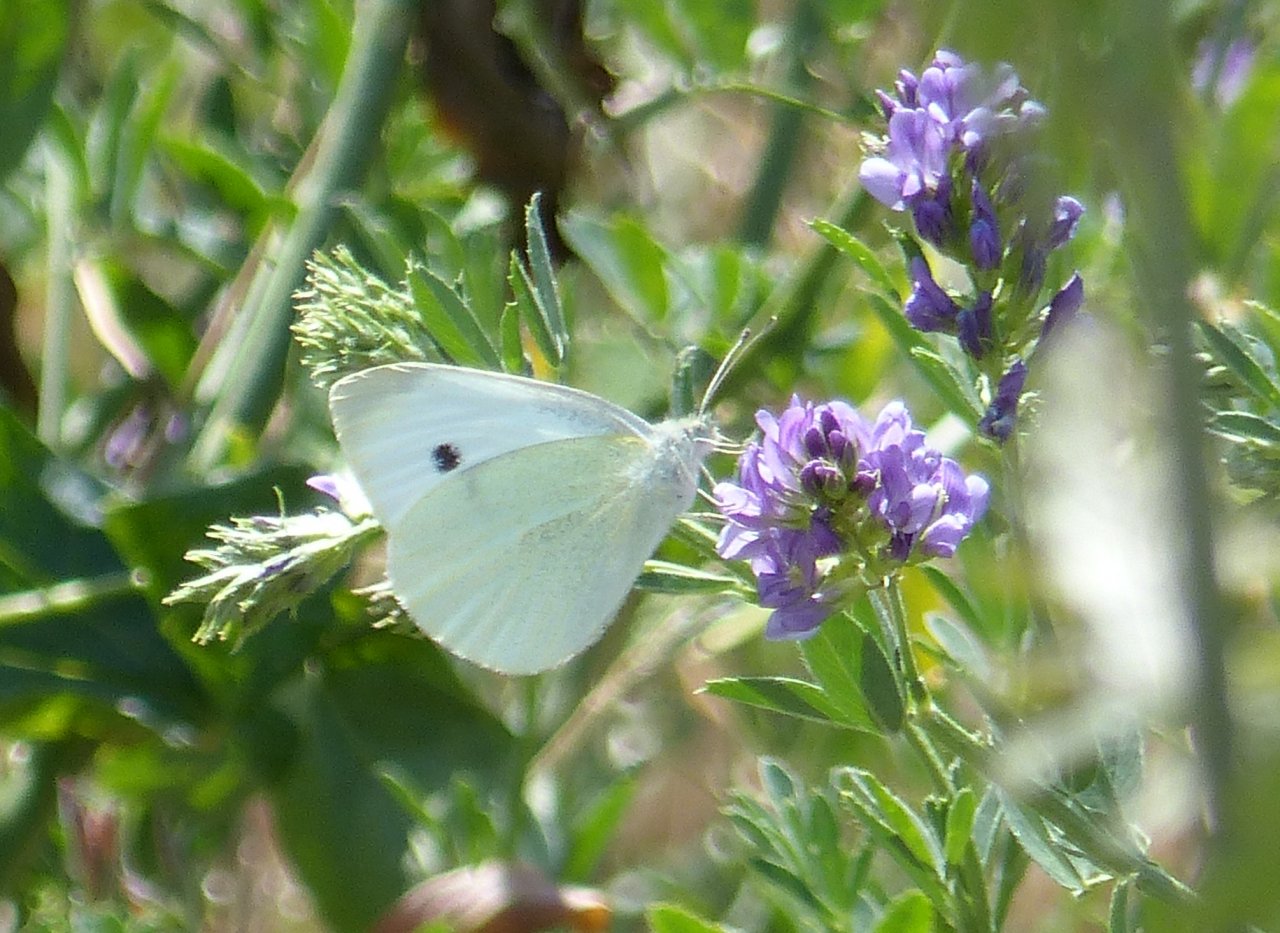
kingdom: Animalia
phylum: Arthropoda
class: Insecta
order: Lepidoptera
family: Pieridae
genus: Pieris
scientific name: Pieris rapae
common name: Cabbage White
